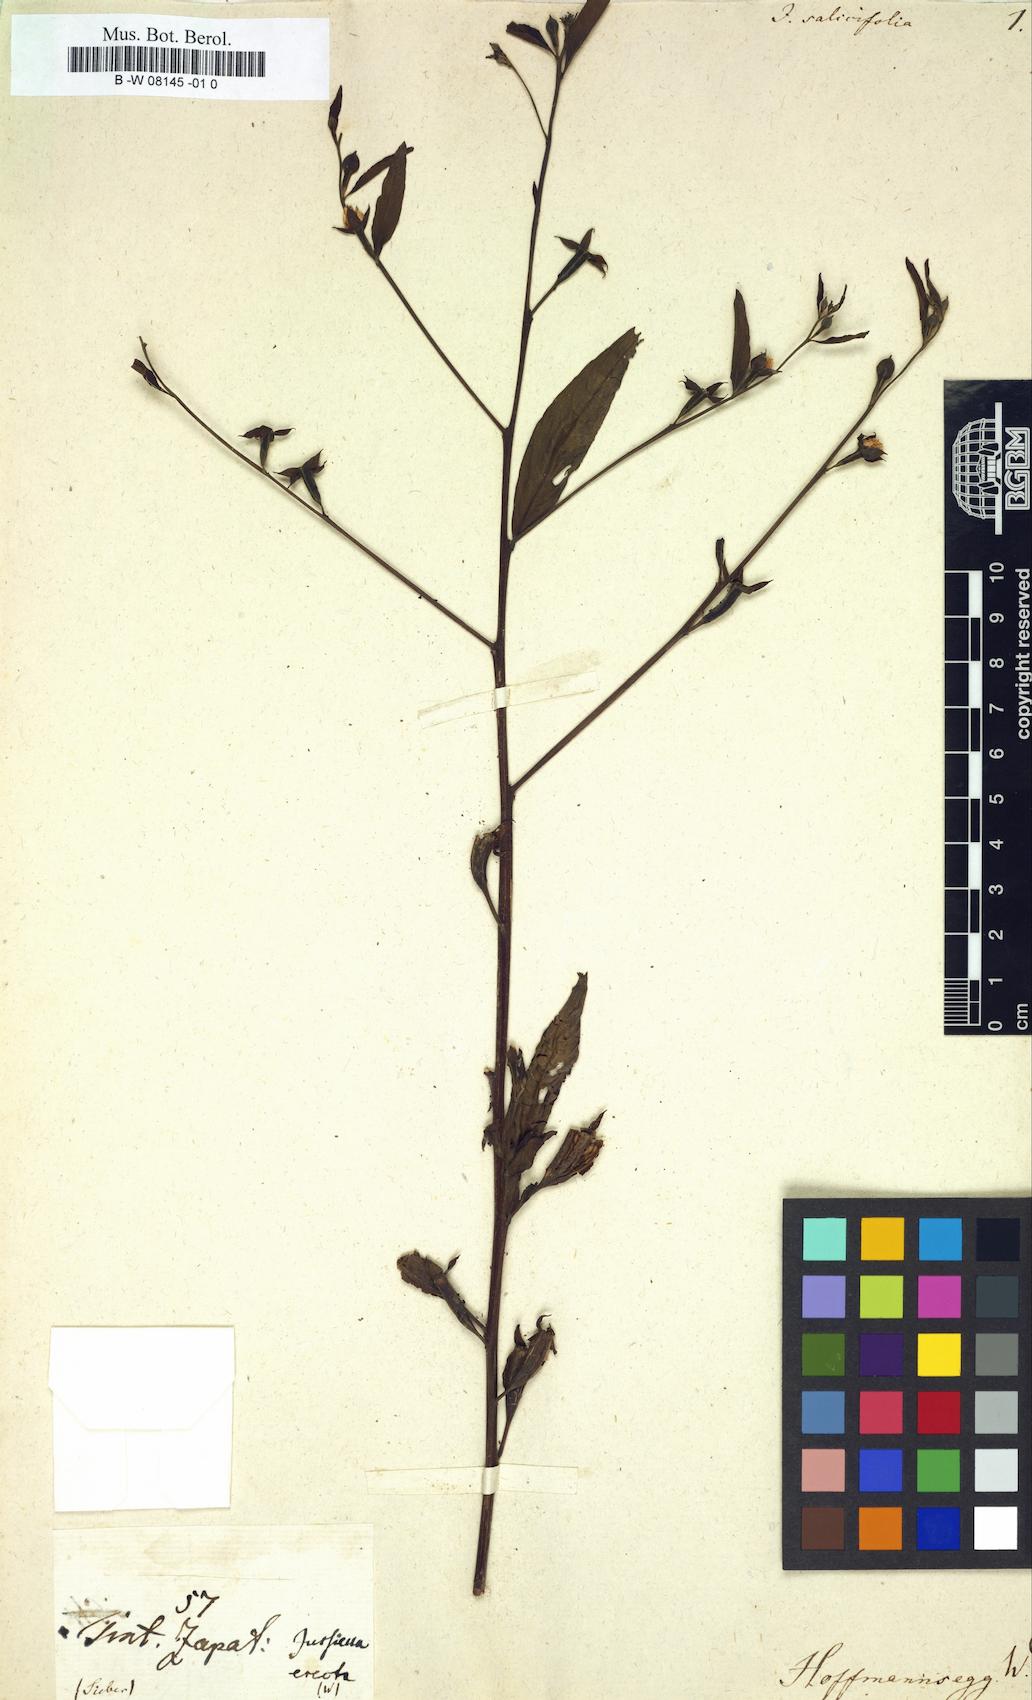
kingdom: Plantae
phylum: Tracheophyta
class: Magnoliopsida
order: Myrtales
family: Onagraceae
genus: Ludwigia
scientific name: Ludwigia octovalvis
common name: Water-primrose
